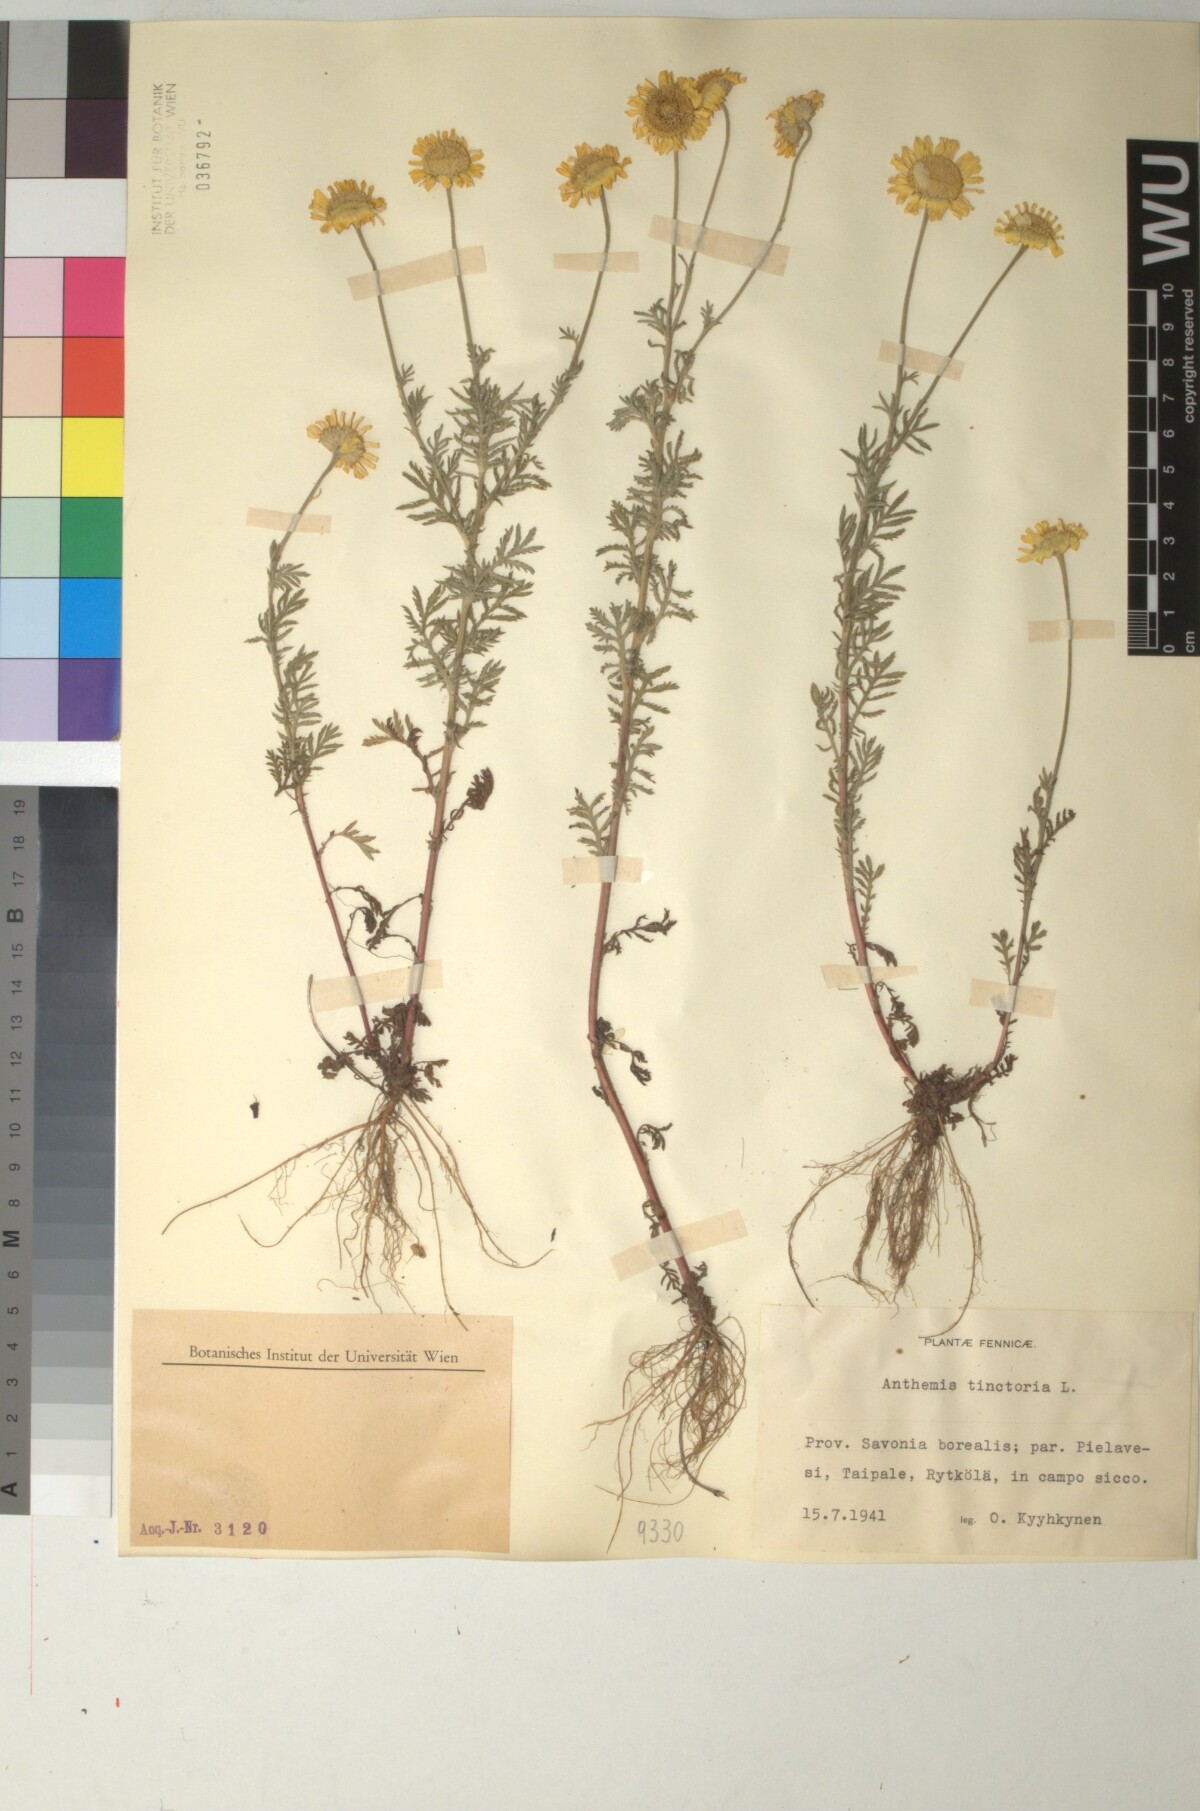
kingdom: Plantae
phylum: Tracheophyta
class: Magnoliopsida
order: Asterales
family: Asteraceae
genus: Cota
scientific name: Cota tinctoria
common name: Golden chamomile
